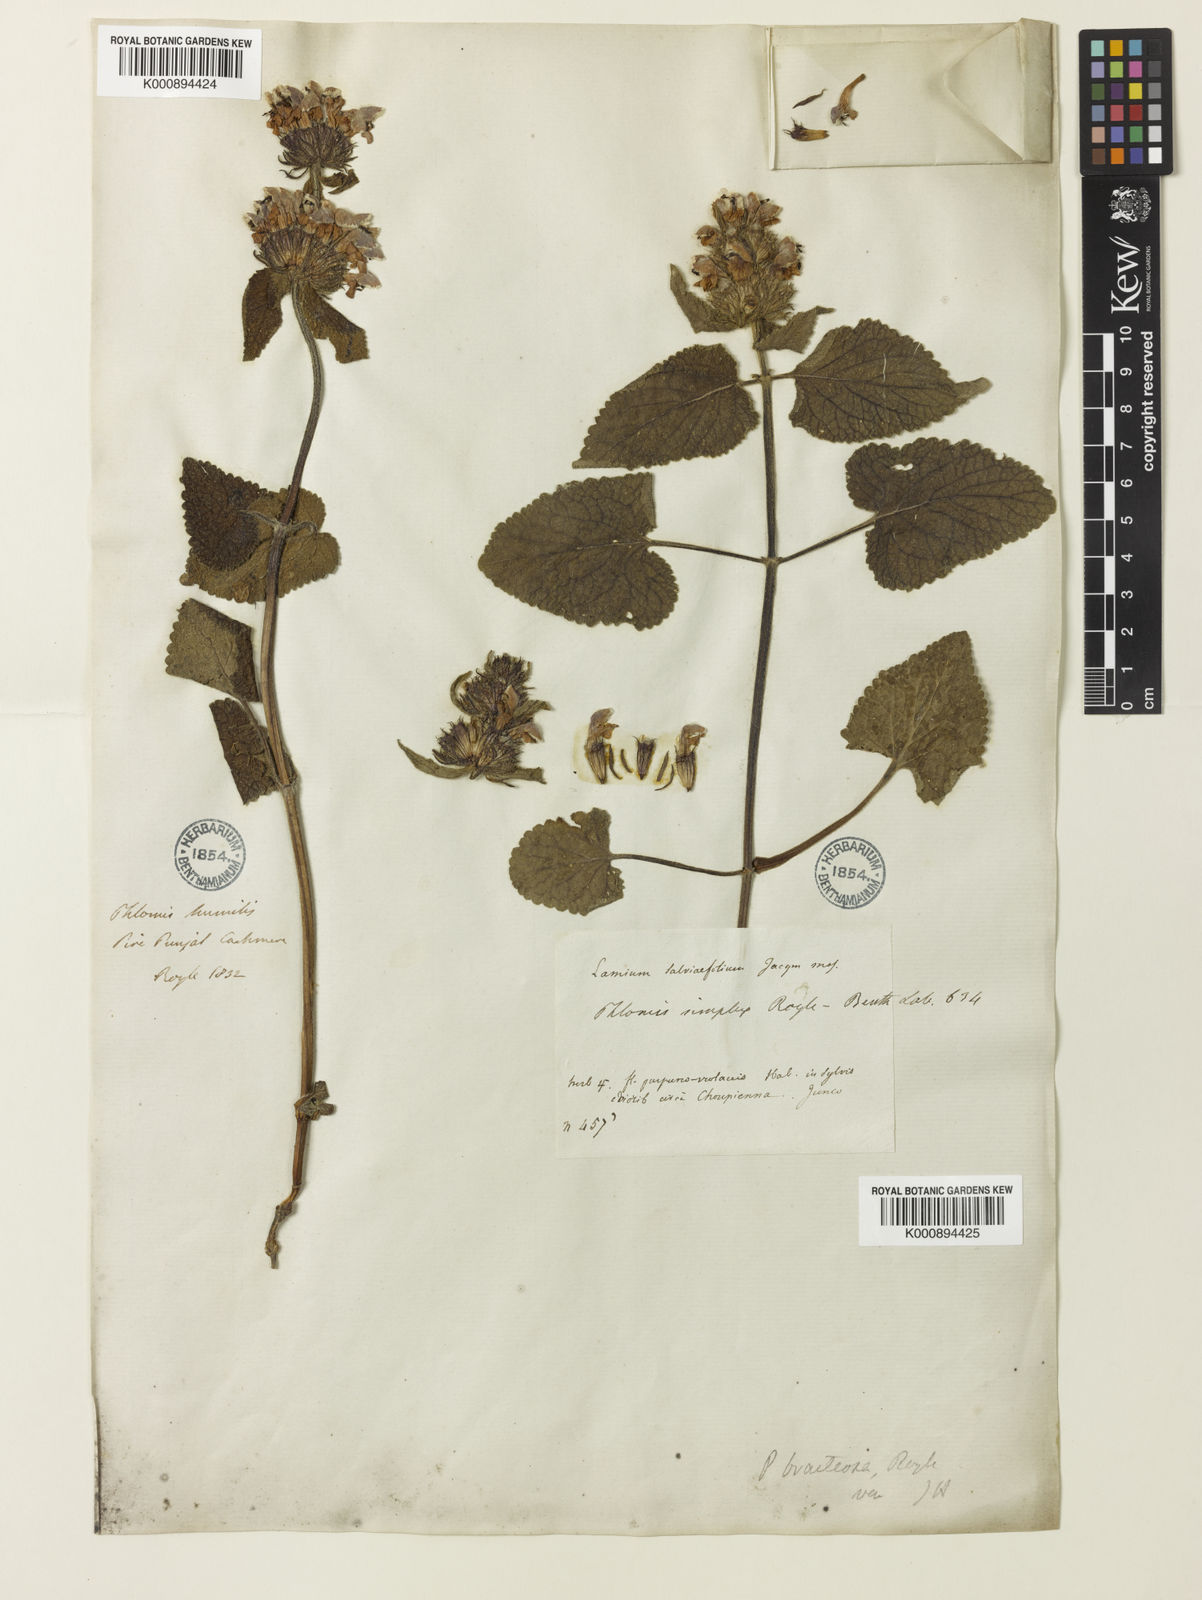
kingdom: Plantae
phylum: Tracheophyta
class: Magnoliopsida
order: Lamiales
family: Lamiaceae
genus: Phlomoides
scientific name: Phlomoides bracteosa
